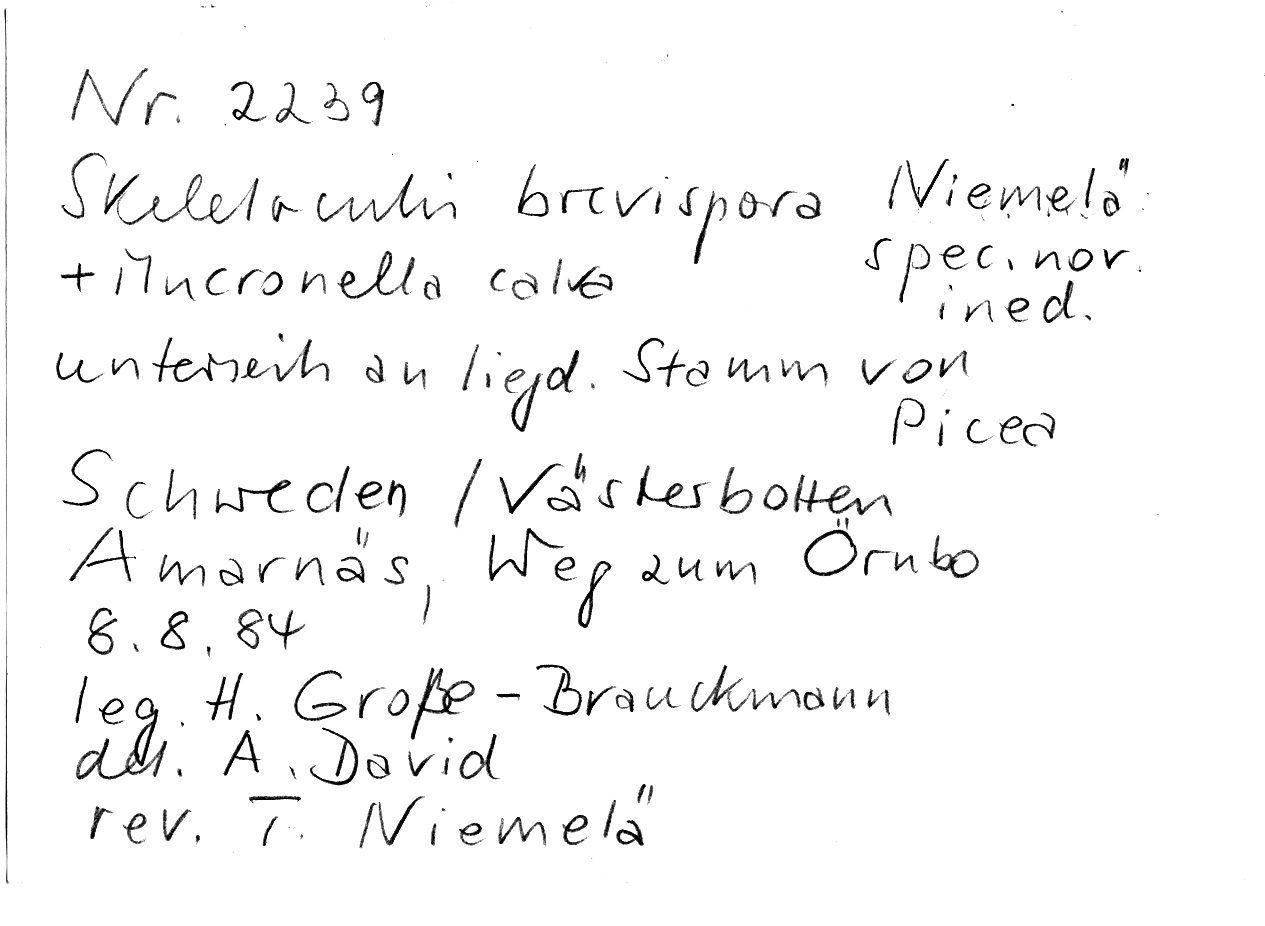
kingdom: Plantae
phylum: Tracheophyta
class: Pinopsida
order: Pinales
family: Pinaceae
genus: Picea
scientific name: Picea
